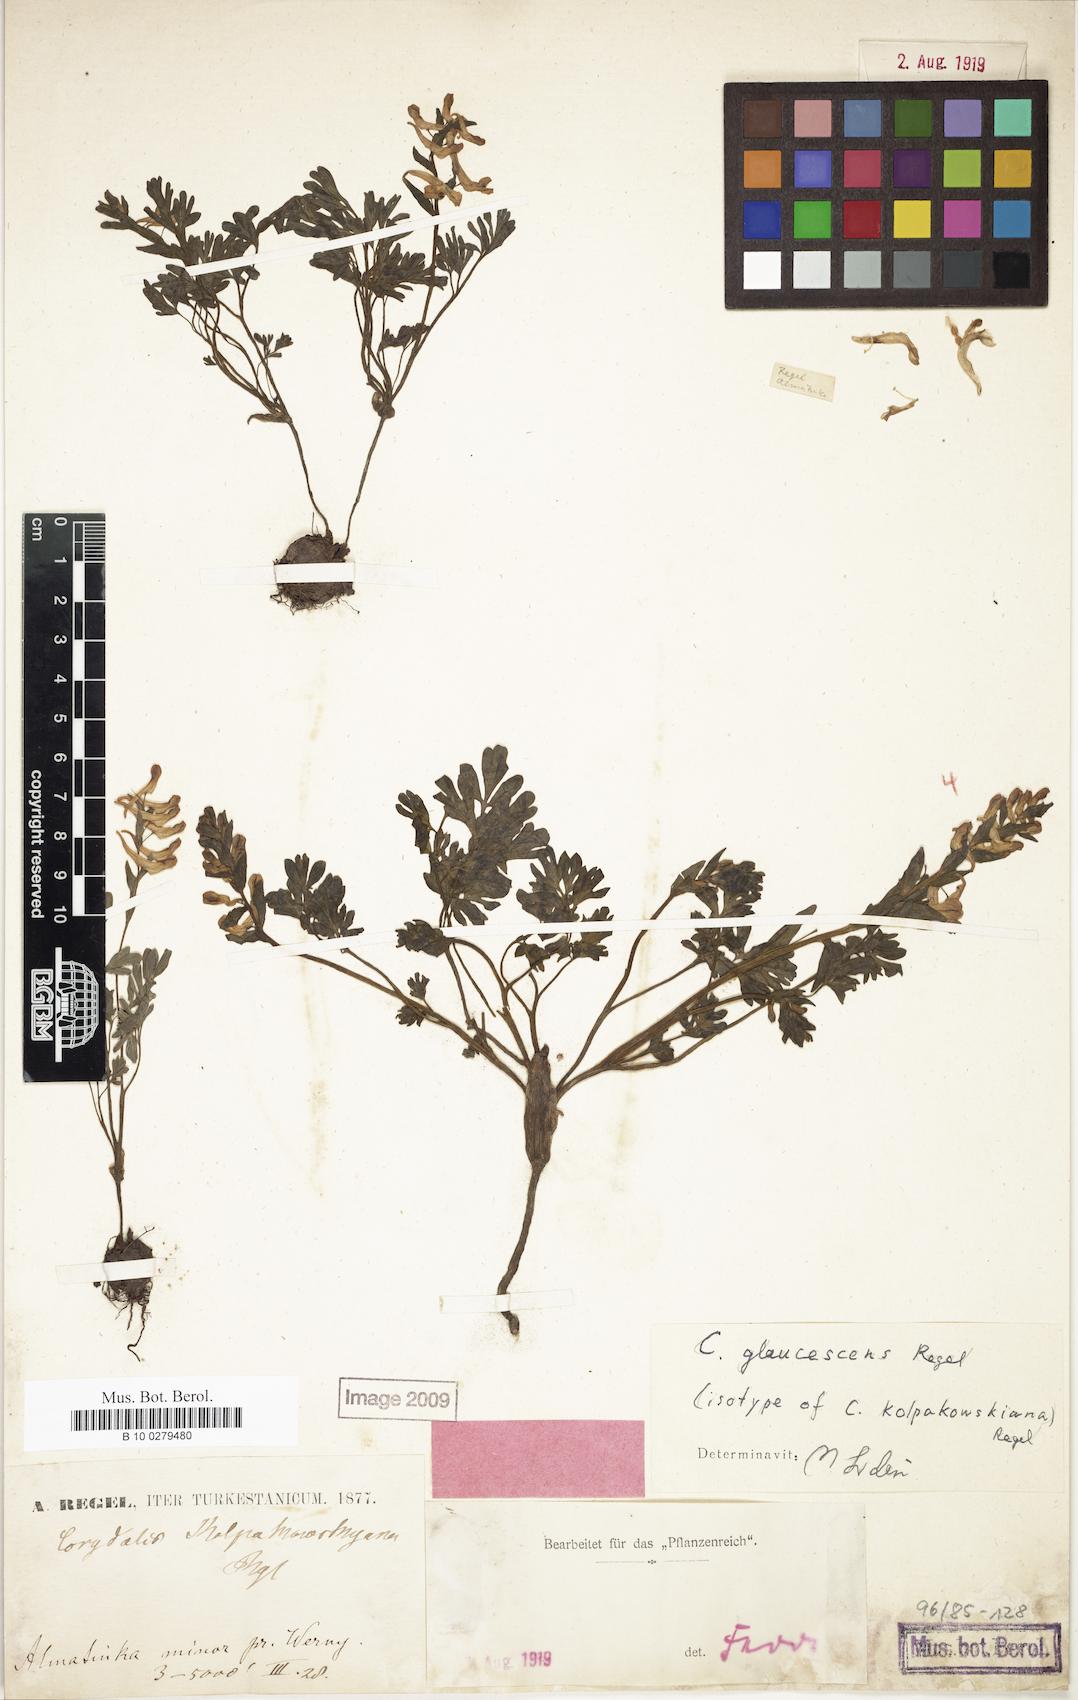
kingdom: Plantae
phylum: Tracheophyta
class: Magnoliopsida
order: Ranunculales
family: Papaveraceae
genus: Corydalis
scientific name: Corydalis glaucescens
